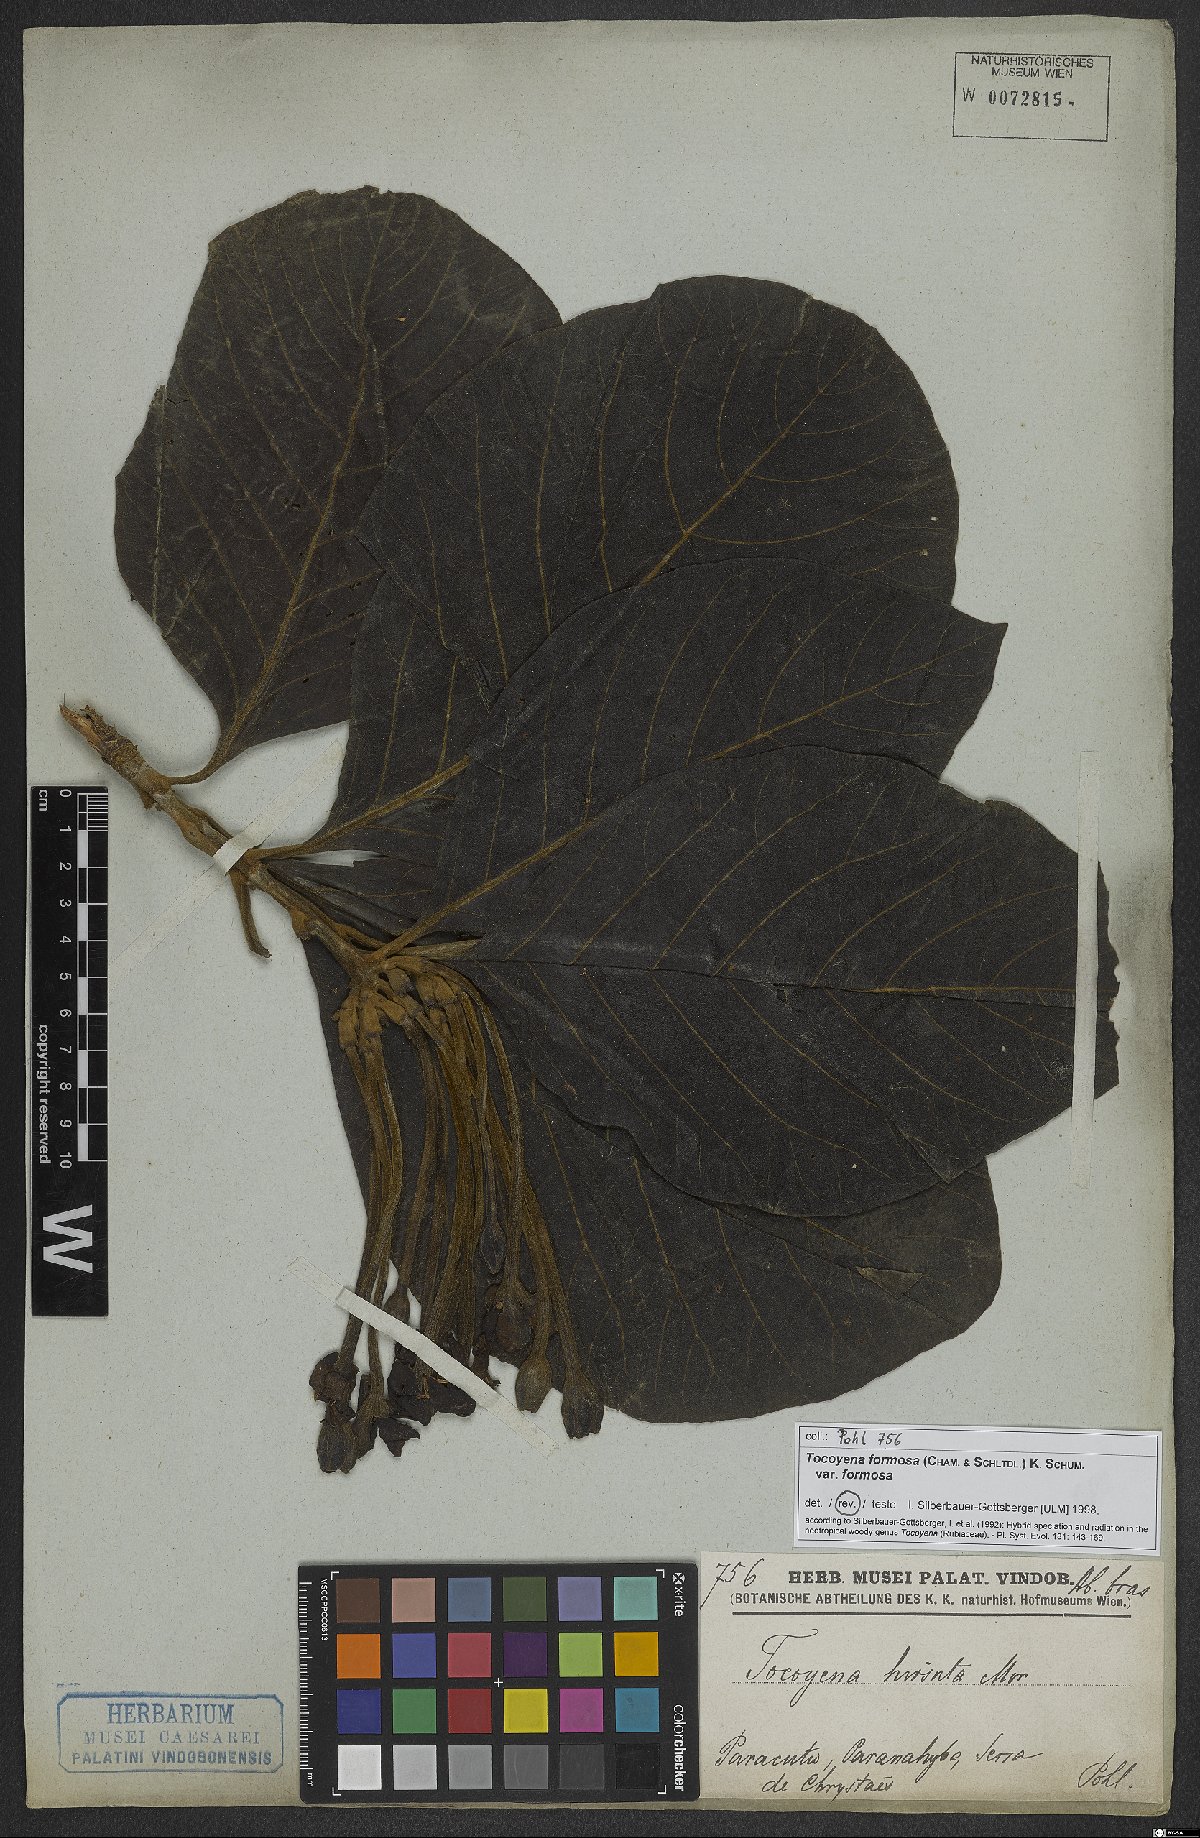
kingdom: Plantae
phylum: Tracheophyta
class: Magnoliopsida
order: Gentianales
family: Rubiaceae
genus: Tocoyena
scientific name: Tocoyena formosa
